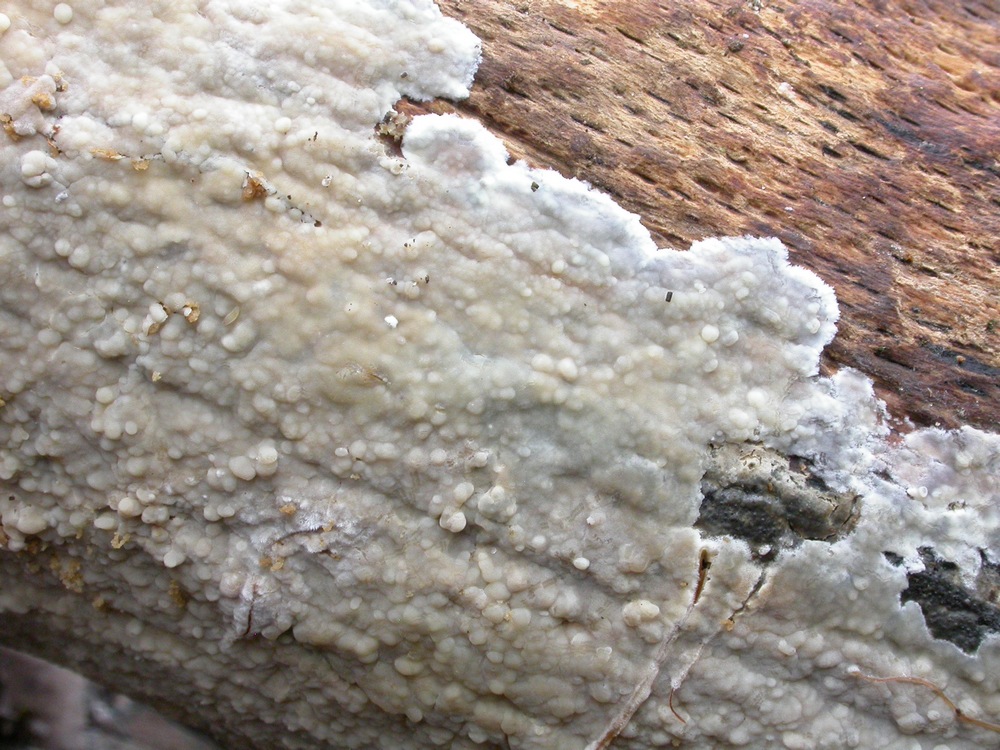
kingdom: Fungi
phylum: Basidiomycota
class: Agaricomycetes
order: Agaricales
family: Radulomycetaceae
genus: Radulomyces
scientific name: Radulomyces confluens
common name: glat naftalinskind
